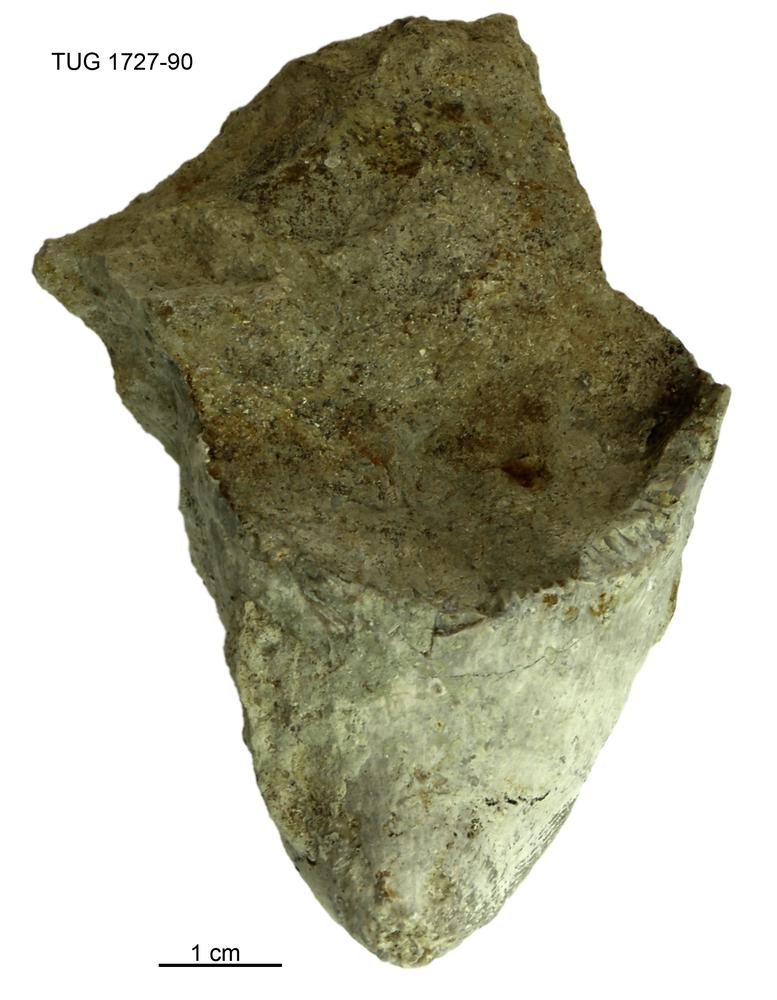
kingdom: Animalia
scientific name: Animalia
